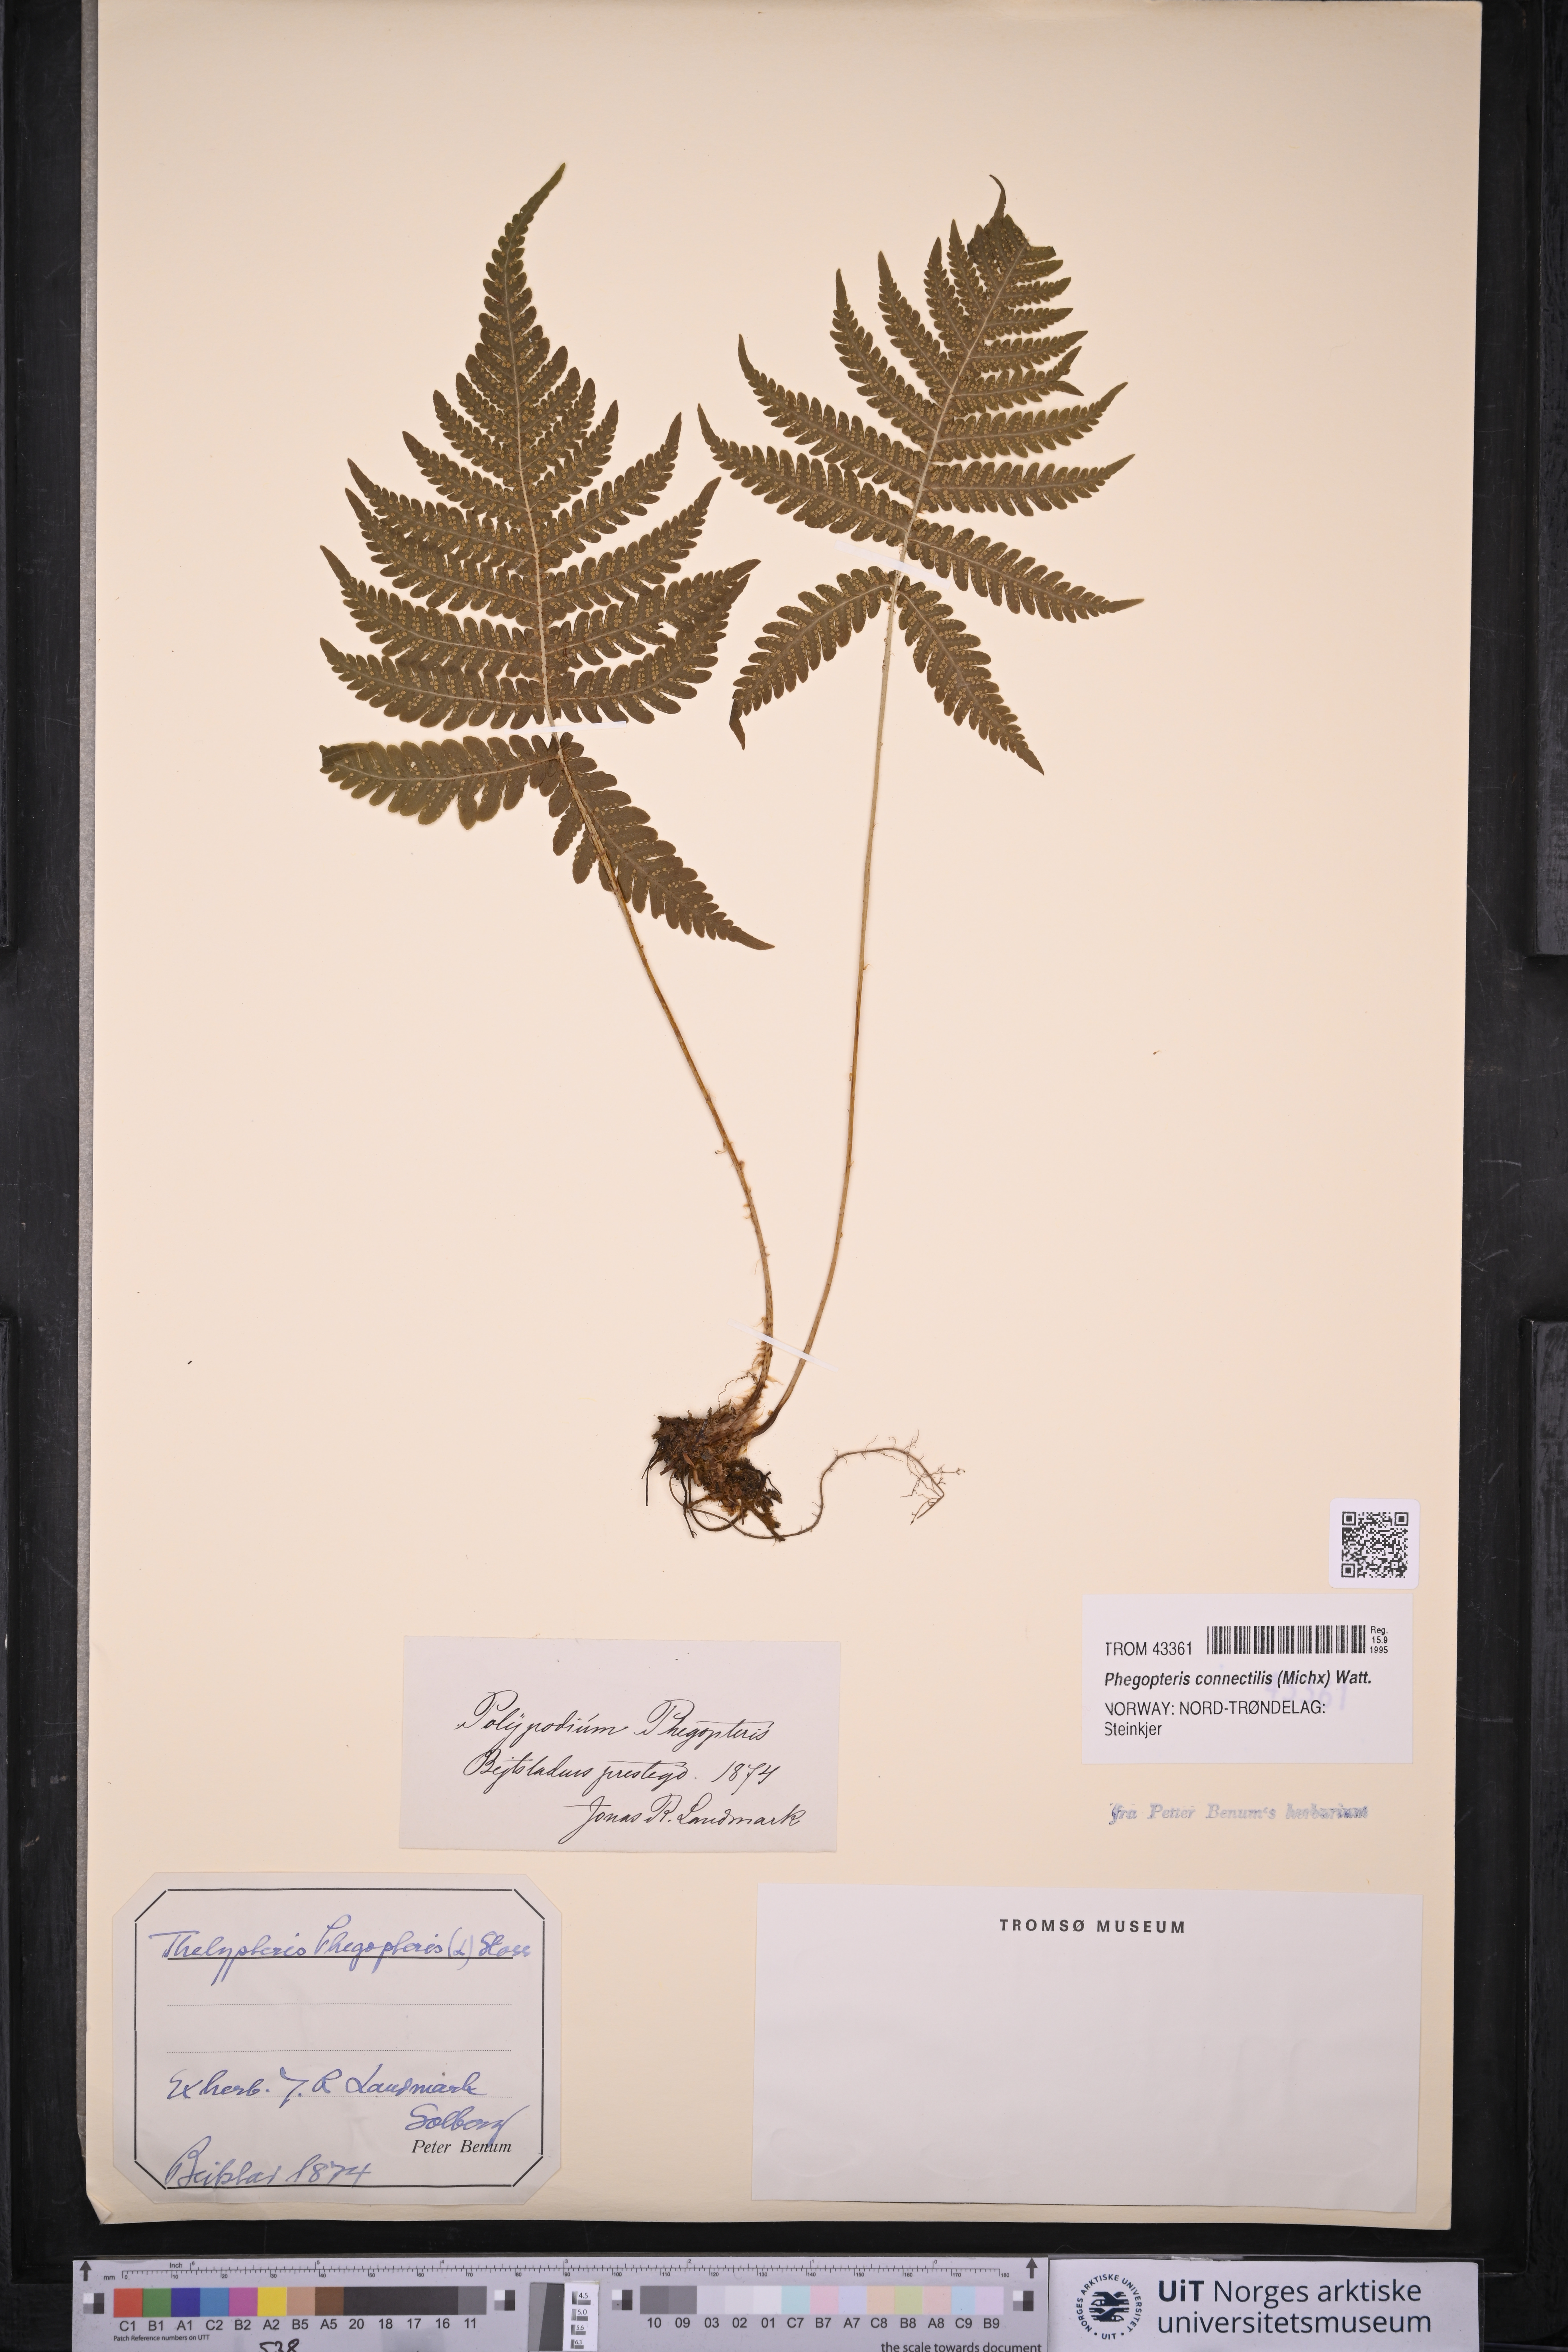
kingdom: Plantae
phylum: Tracheophyta
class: Polypodiopsida
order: Polypodiales
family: Thelypteridaceae
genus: Phegopteris
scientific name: Phegopteris connectilis
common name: Beech fern
